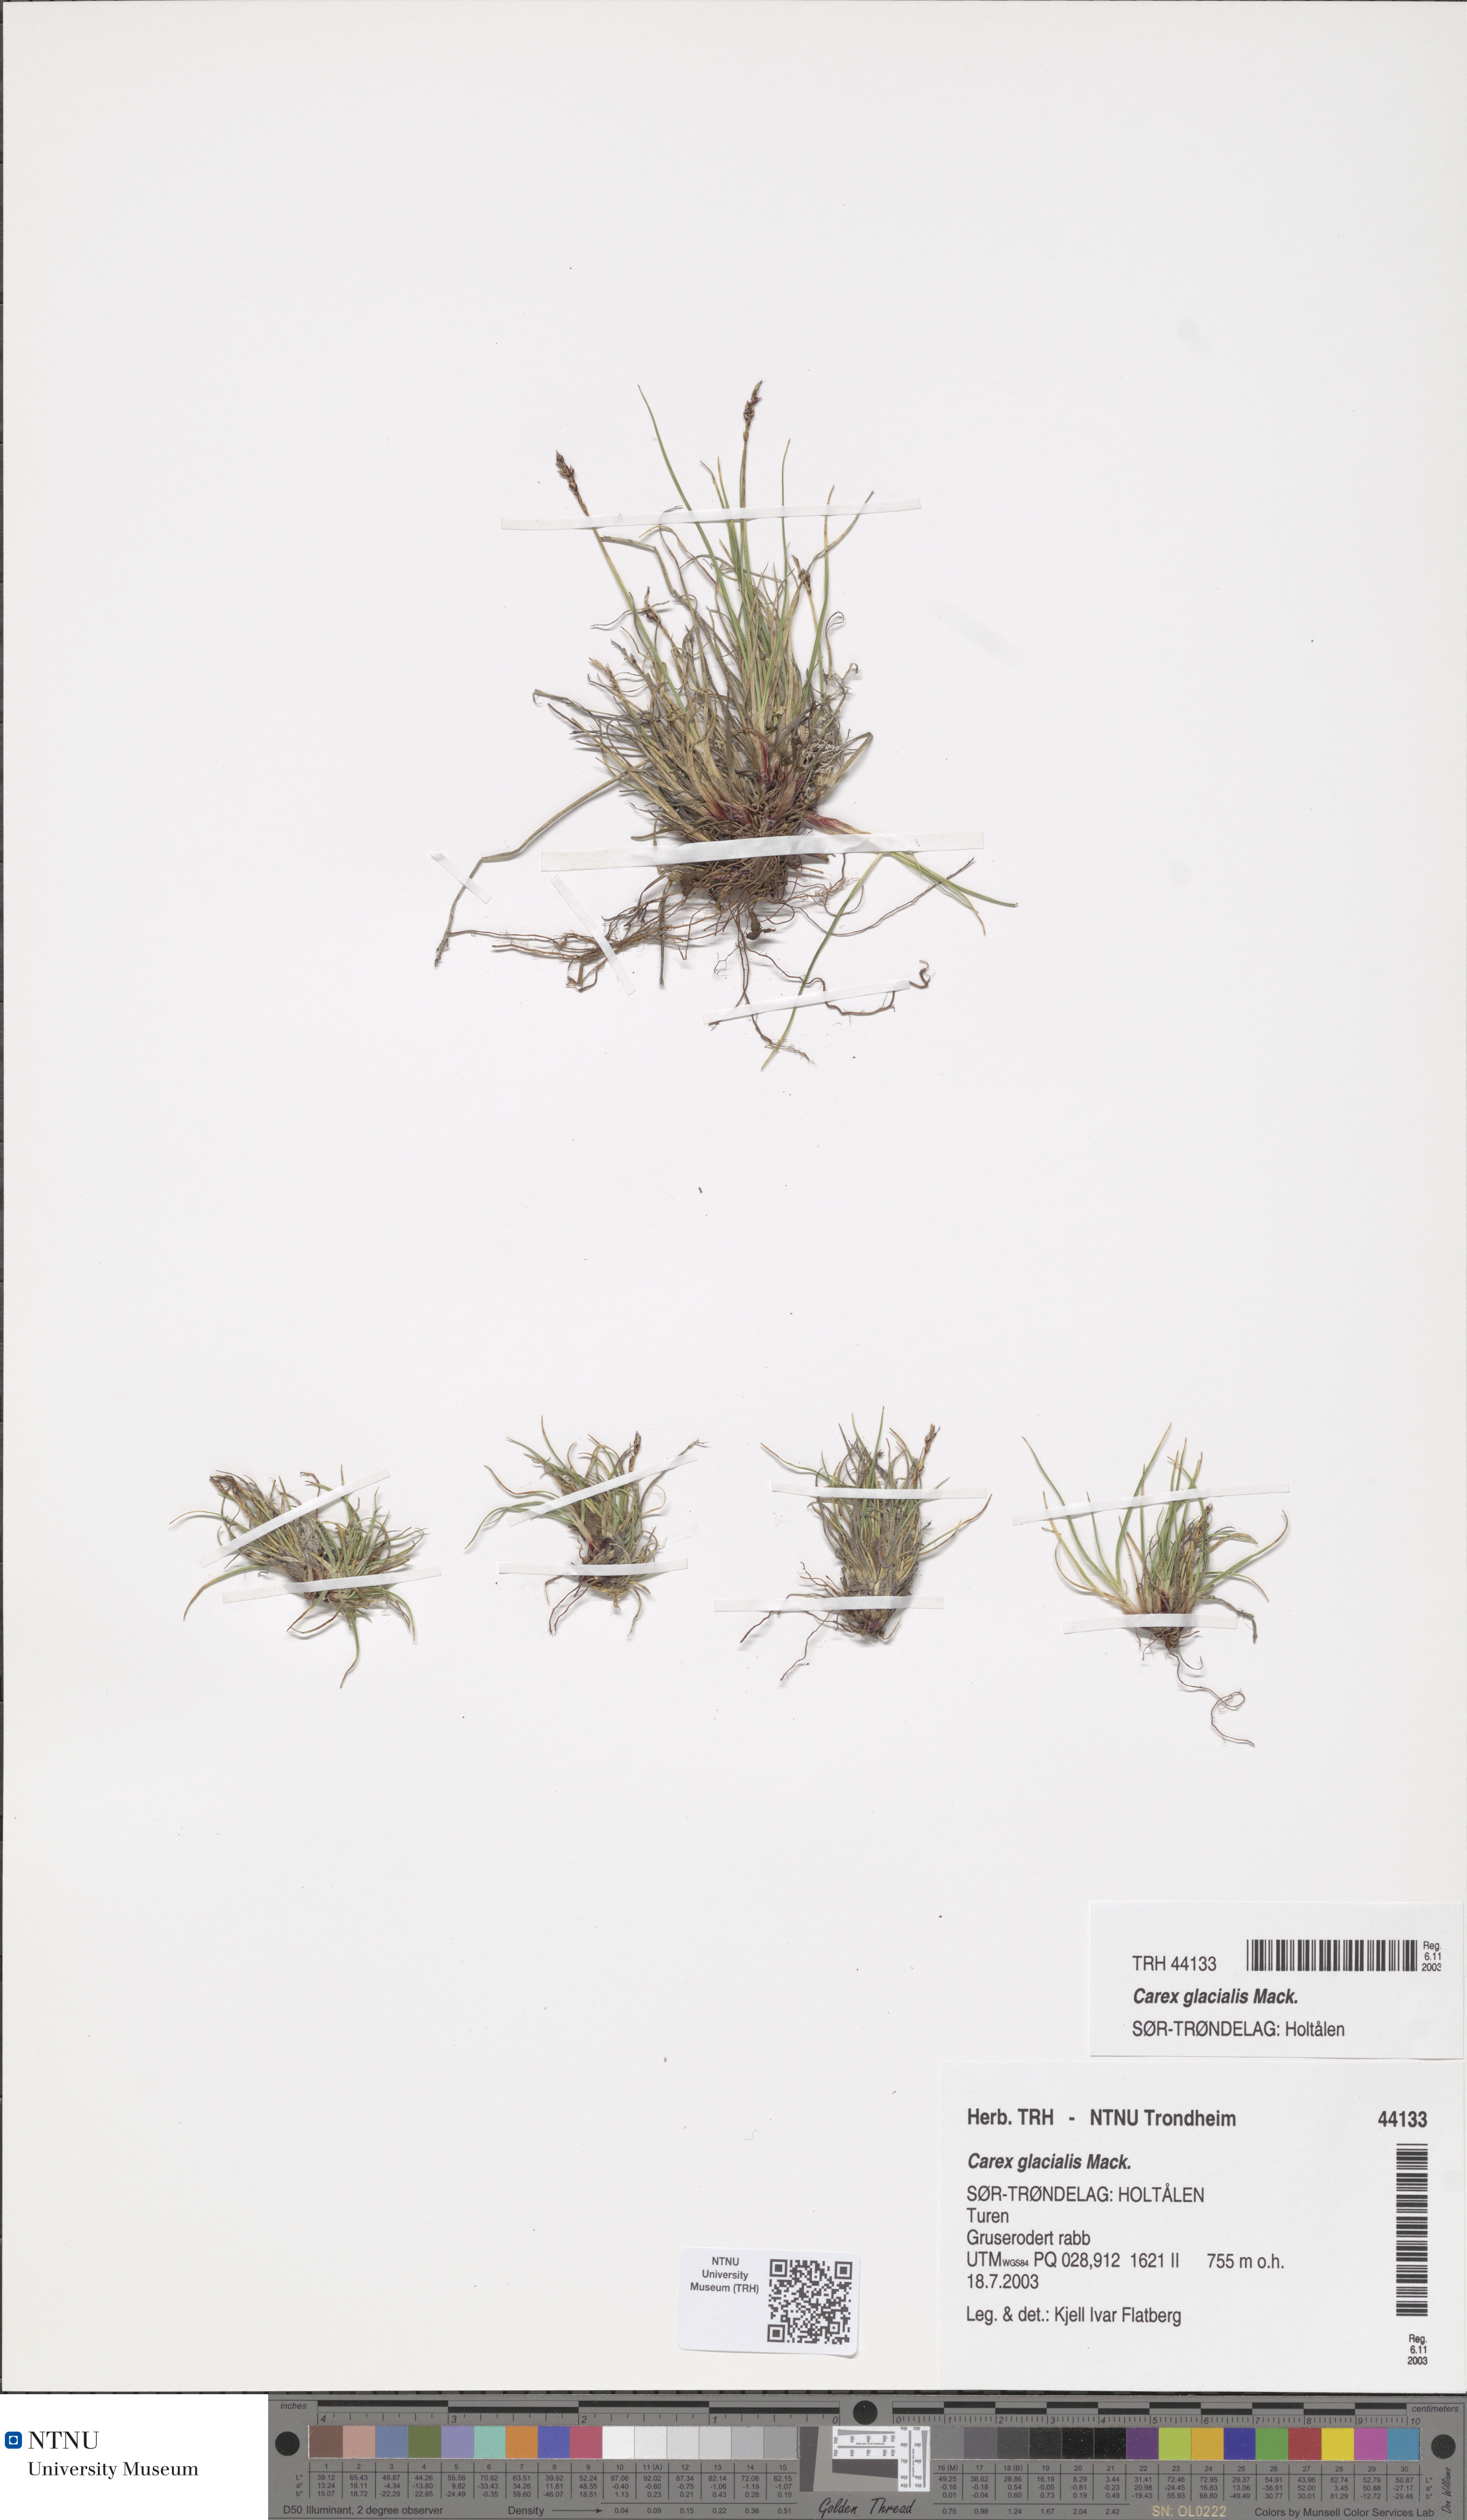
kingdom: Plantae
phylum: Tracheophyta
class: Liliopsida
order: Poales
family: Cyperaceae
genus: Carex
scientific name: Carex glacialis
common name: Newfoundland sedge
